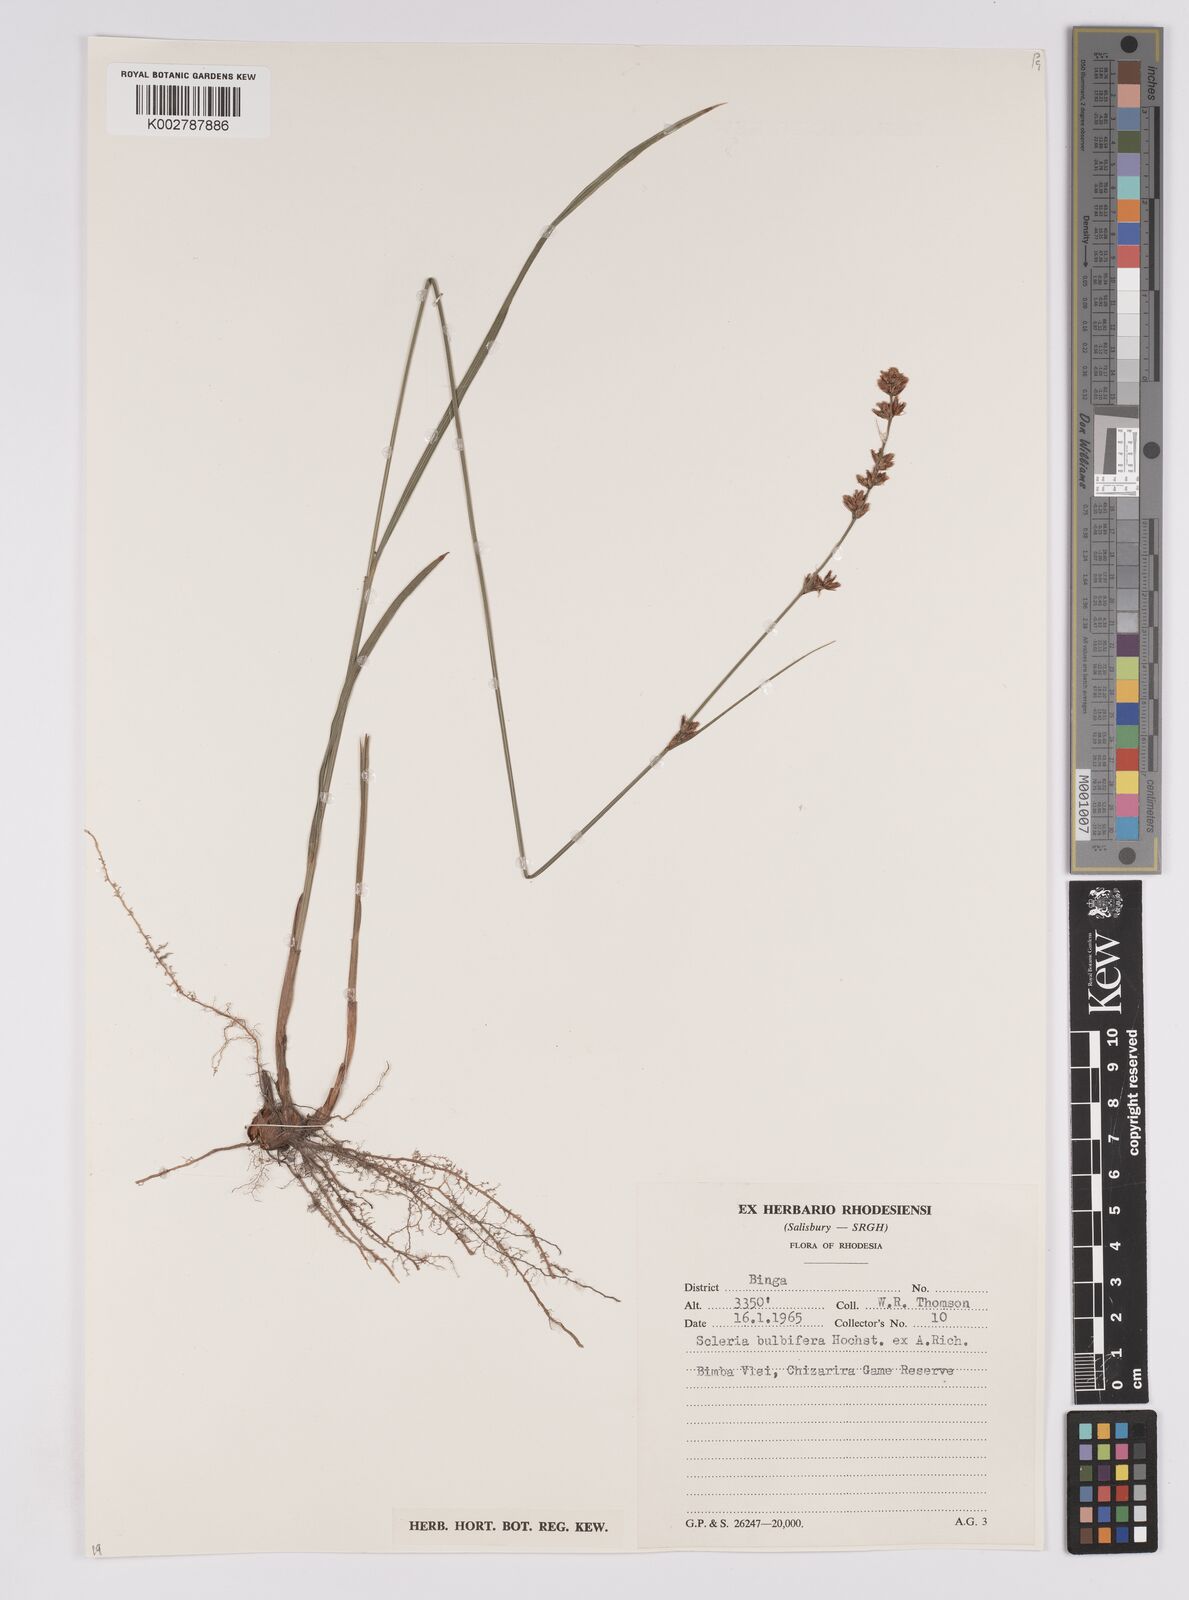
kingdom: Plantae
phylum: Tracheophyta
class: Liliopsida
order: Poales
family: Cyperaceae
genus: Scleria
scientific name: Scleria bulbifera
